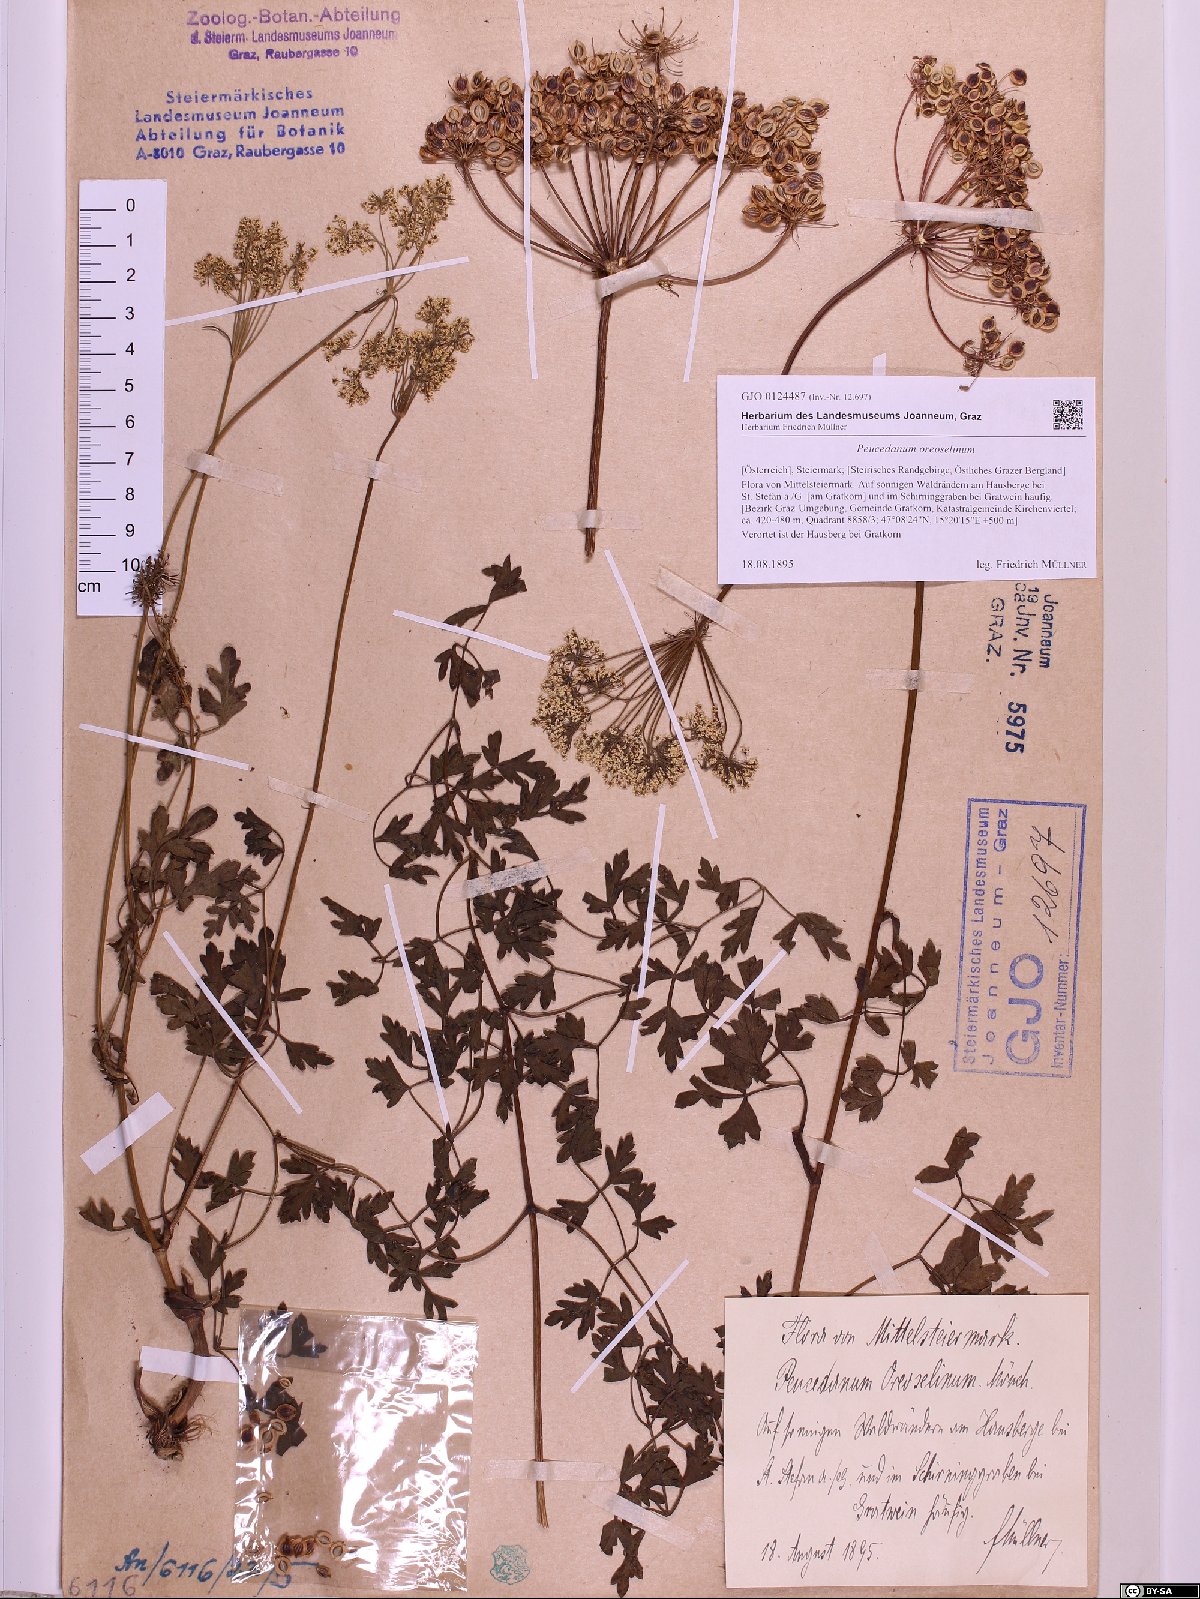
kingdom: Plantae
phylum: Tracheophyta
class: Magnoliopsida
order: Apiales
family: Apiaceae
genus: Oreoselinum
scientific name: Oreoselinum nigrum
